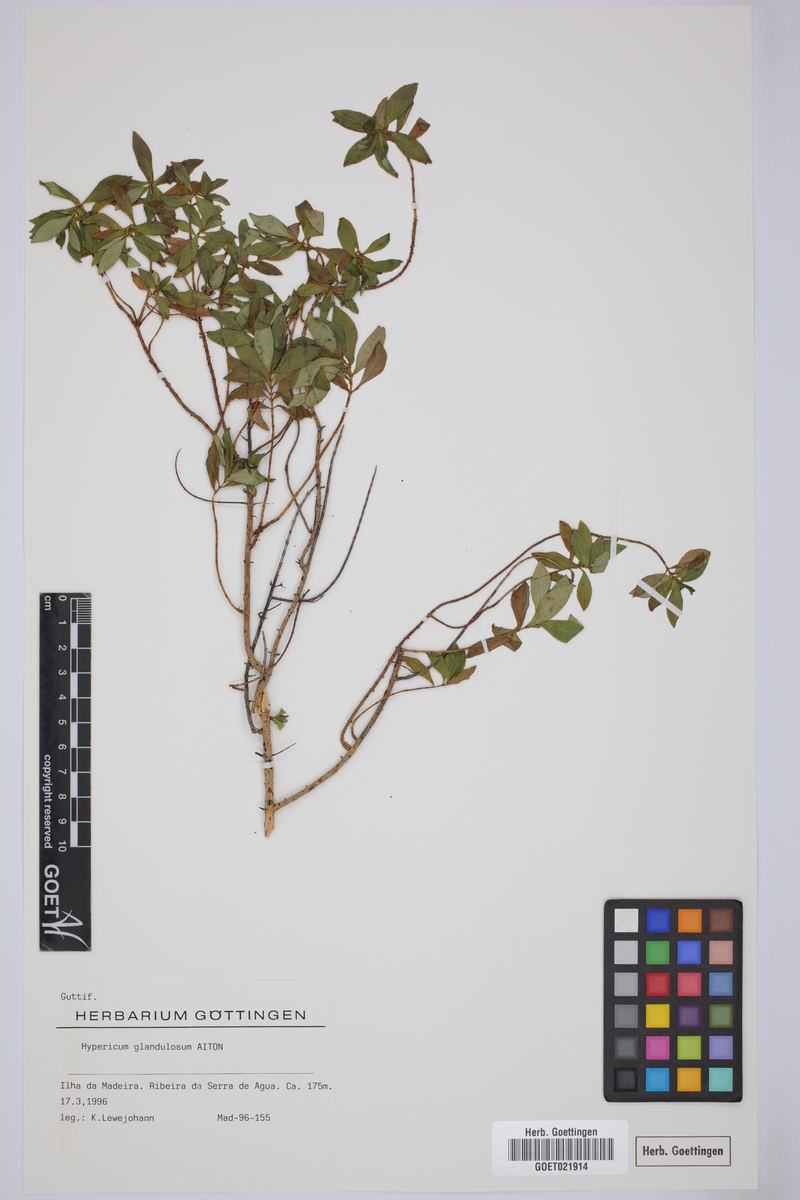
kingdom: Plantae
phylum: Tracheophyta
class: Magnoliopsida
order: Malpighiales
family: Hypericaceae
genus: Hypericum
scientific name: Hypericum glandulosum
